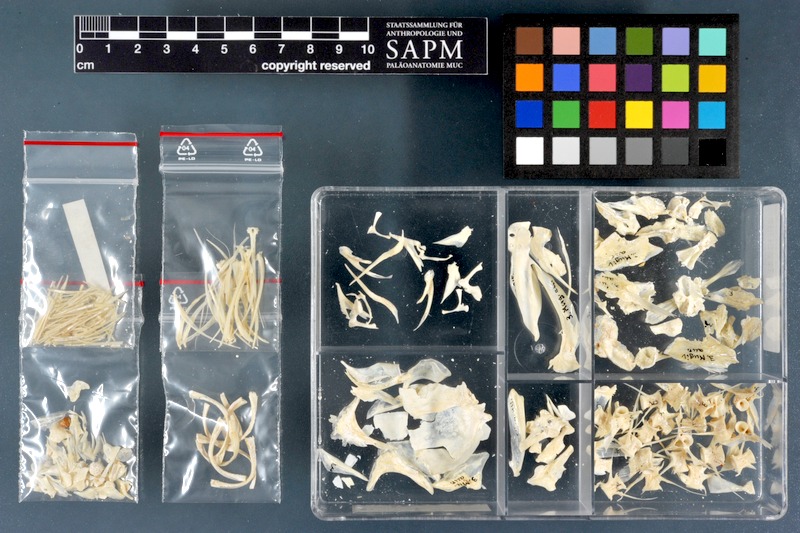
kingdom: Animalia
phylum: Chordata
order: Mugiliformes
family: Mugilidae
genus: Chelon
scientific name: Chelon auratus
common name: Golden grey mullet
